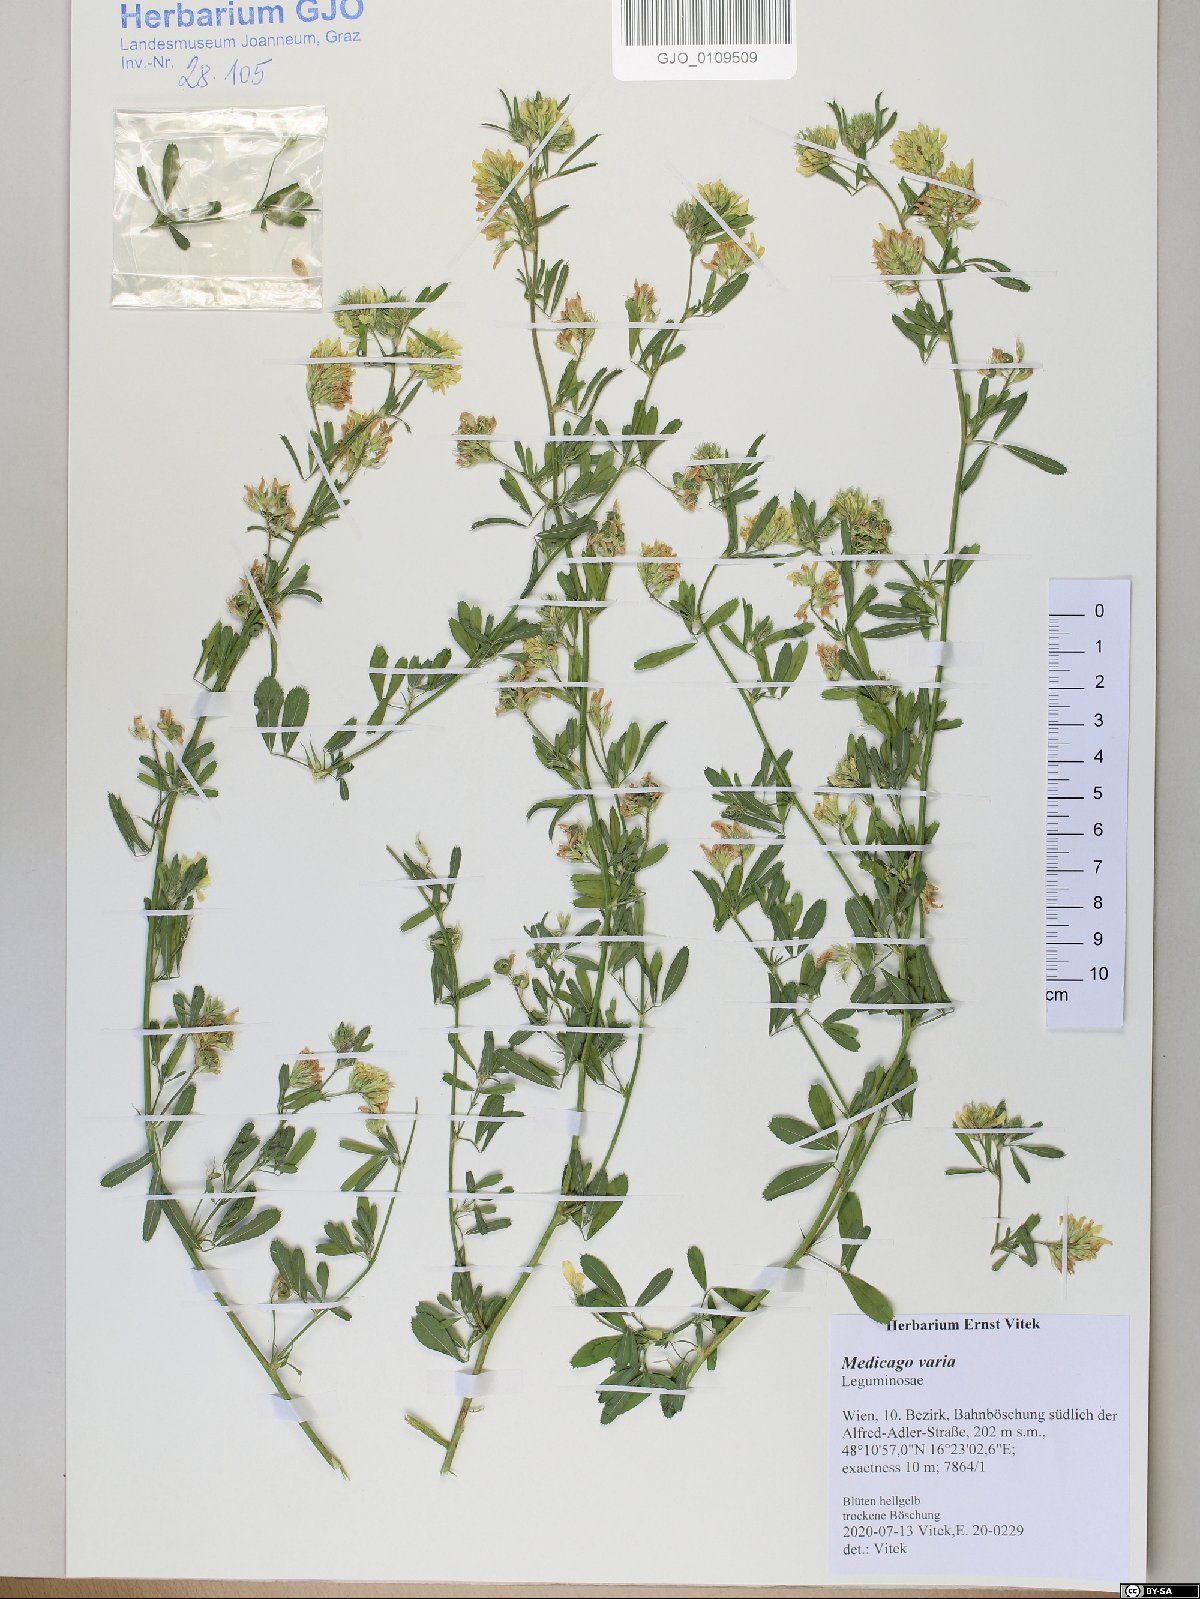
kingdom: Plantae
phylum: Tracheophyta
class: Magnoliopsida
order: Fabales
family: Fabaceae
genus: Medicago
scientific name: Medicago varia
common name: Sand lucerne
